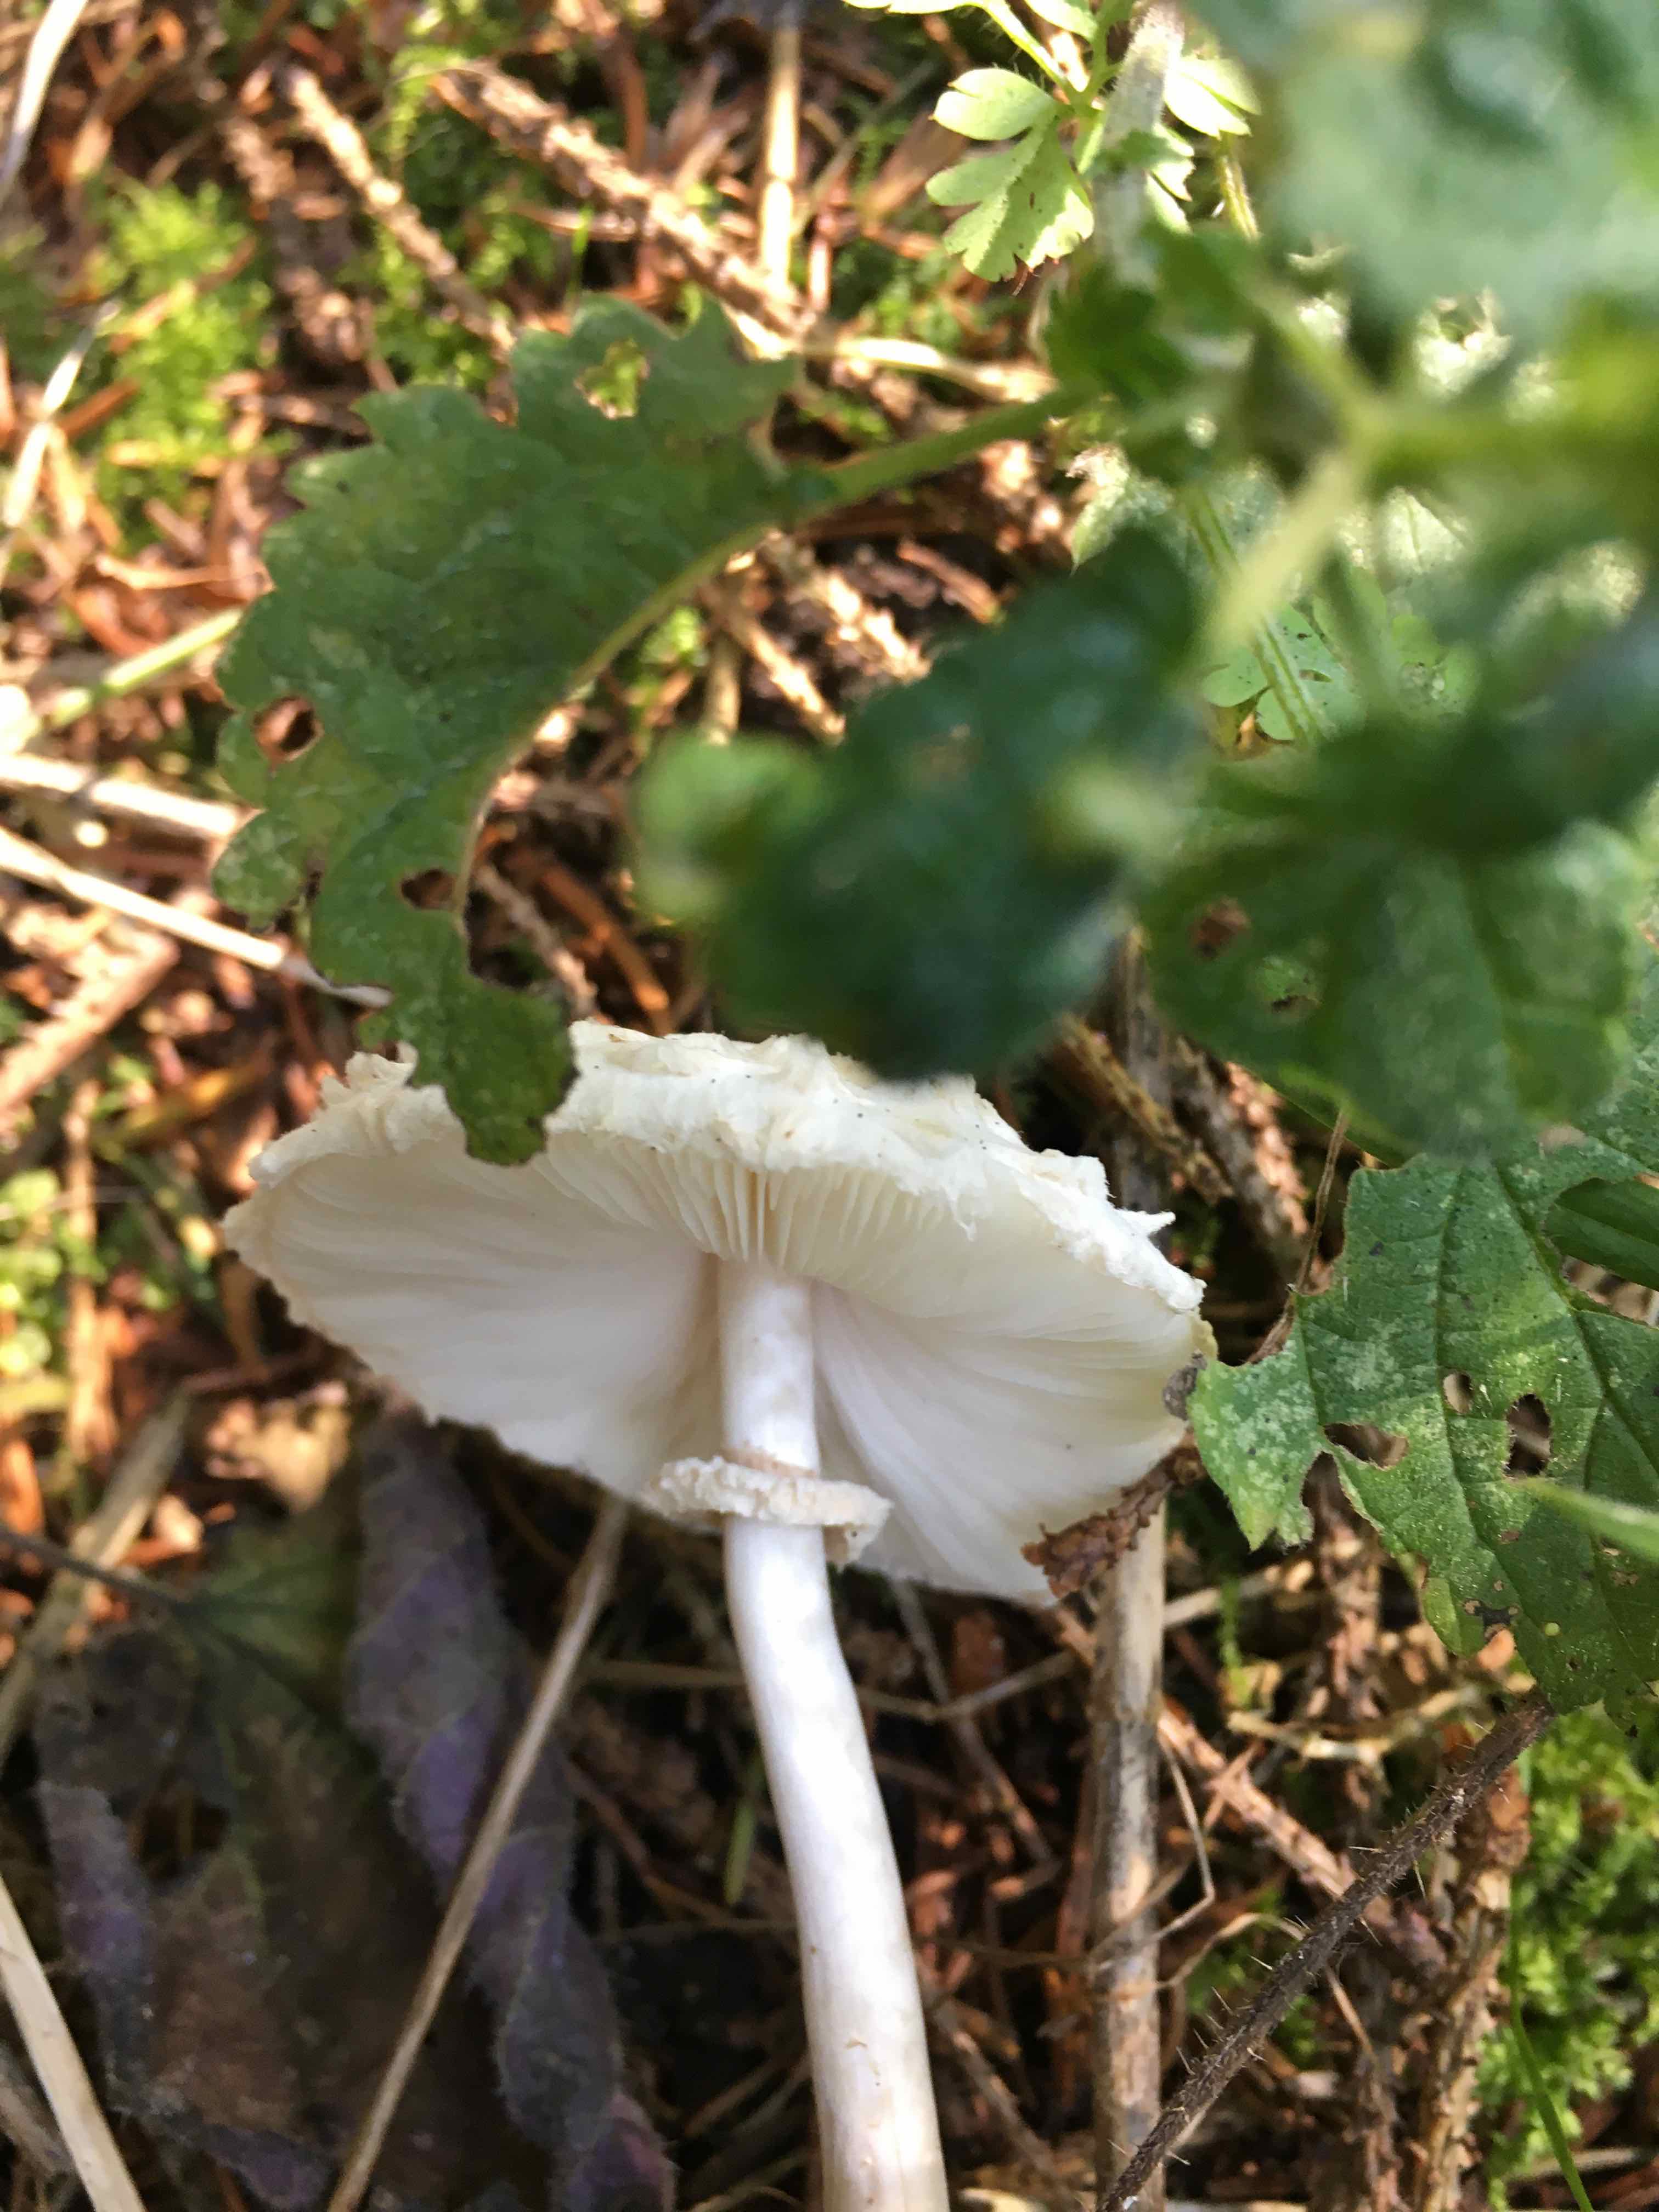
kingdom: Fungi
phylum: Basidiomycota
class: Agaricomycetes
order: Agaricales
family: Agaricaceae
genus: Leucoagaricus
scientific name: Leucoagaricus nympharum
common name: gran-silkehat
